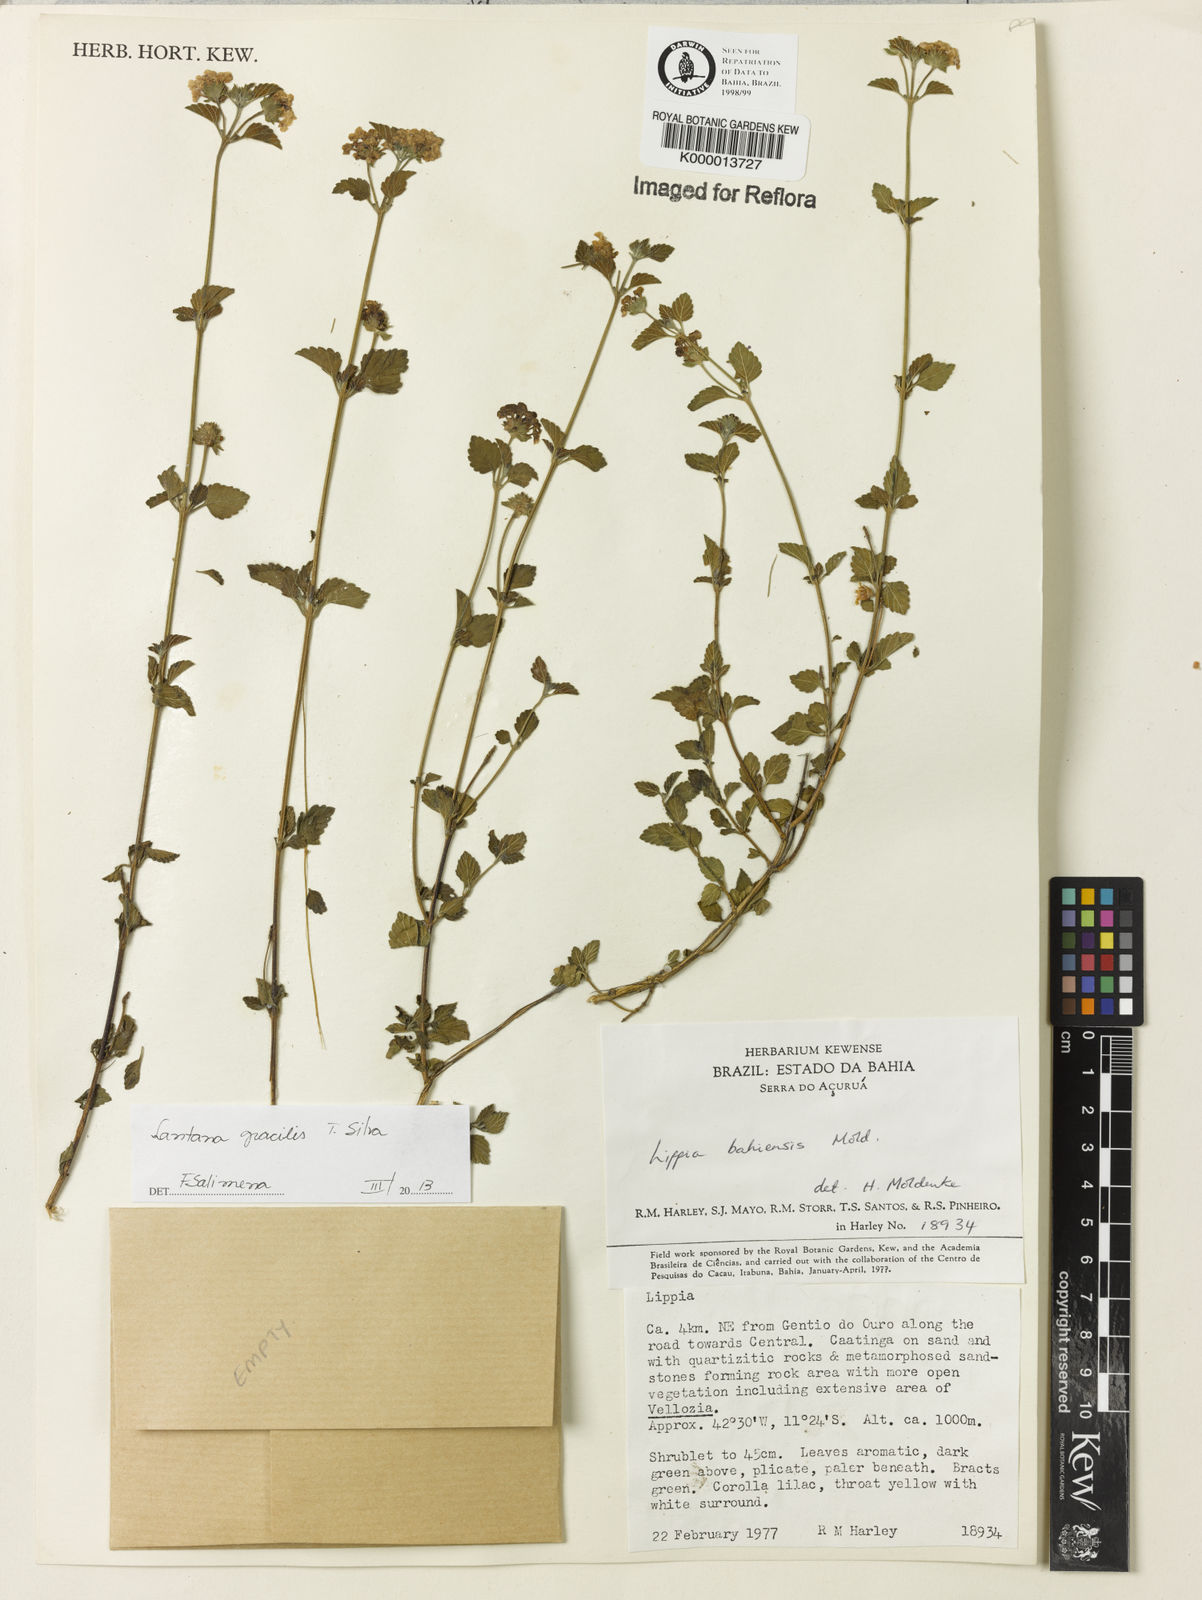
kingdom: Plantae
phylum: Tracheophyta
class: Magnoliopsida
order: Lamiales
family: Verbenaceae
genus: Lantana
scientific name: Lantana gracilis
